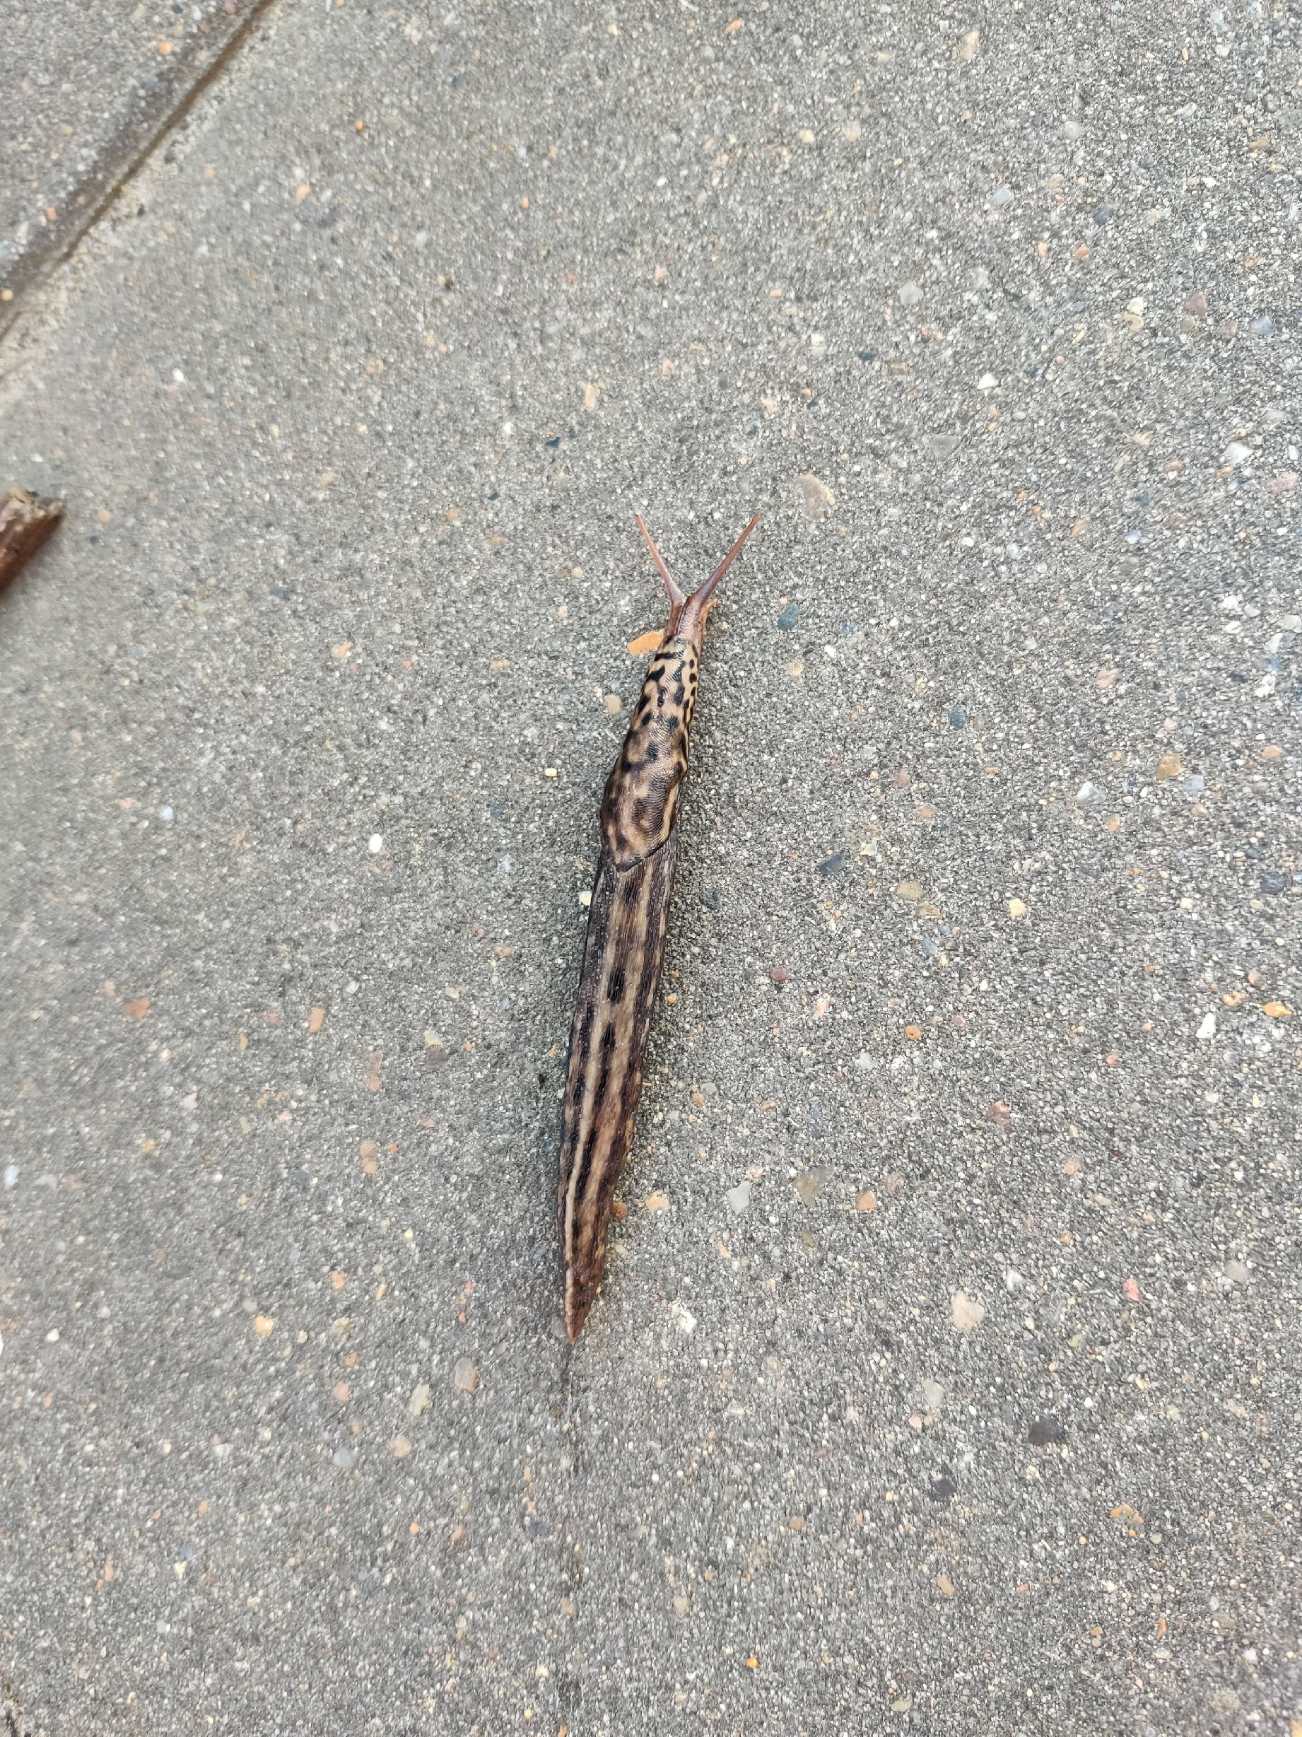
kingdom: Animalia
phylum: Mollusca
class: Gastropoda
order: Stylommatophora
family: Limacidae
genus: Limax
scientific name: Limax maximus
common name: Pantersnegl
